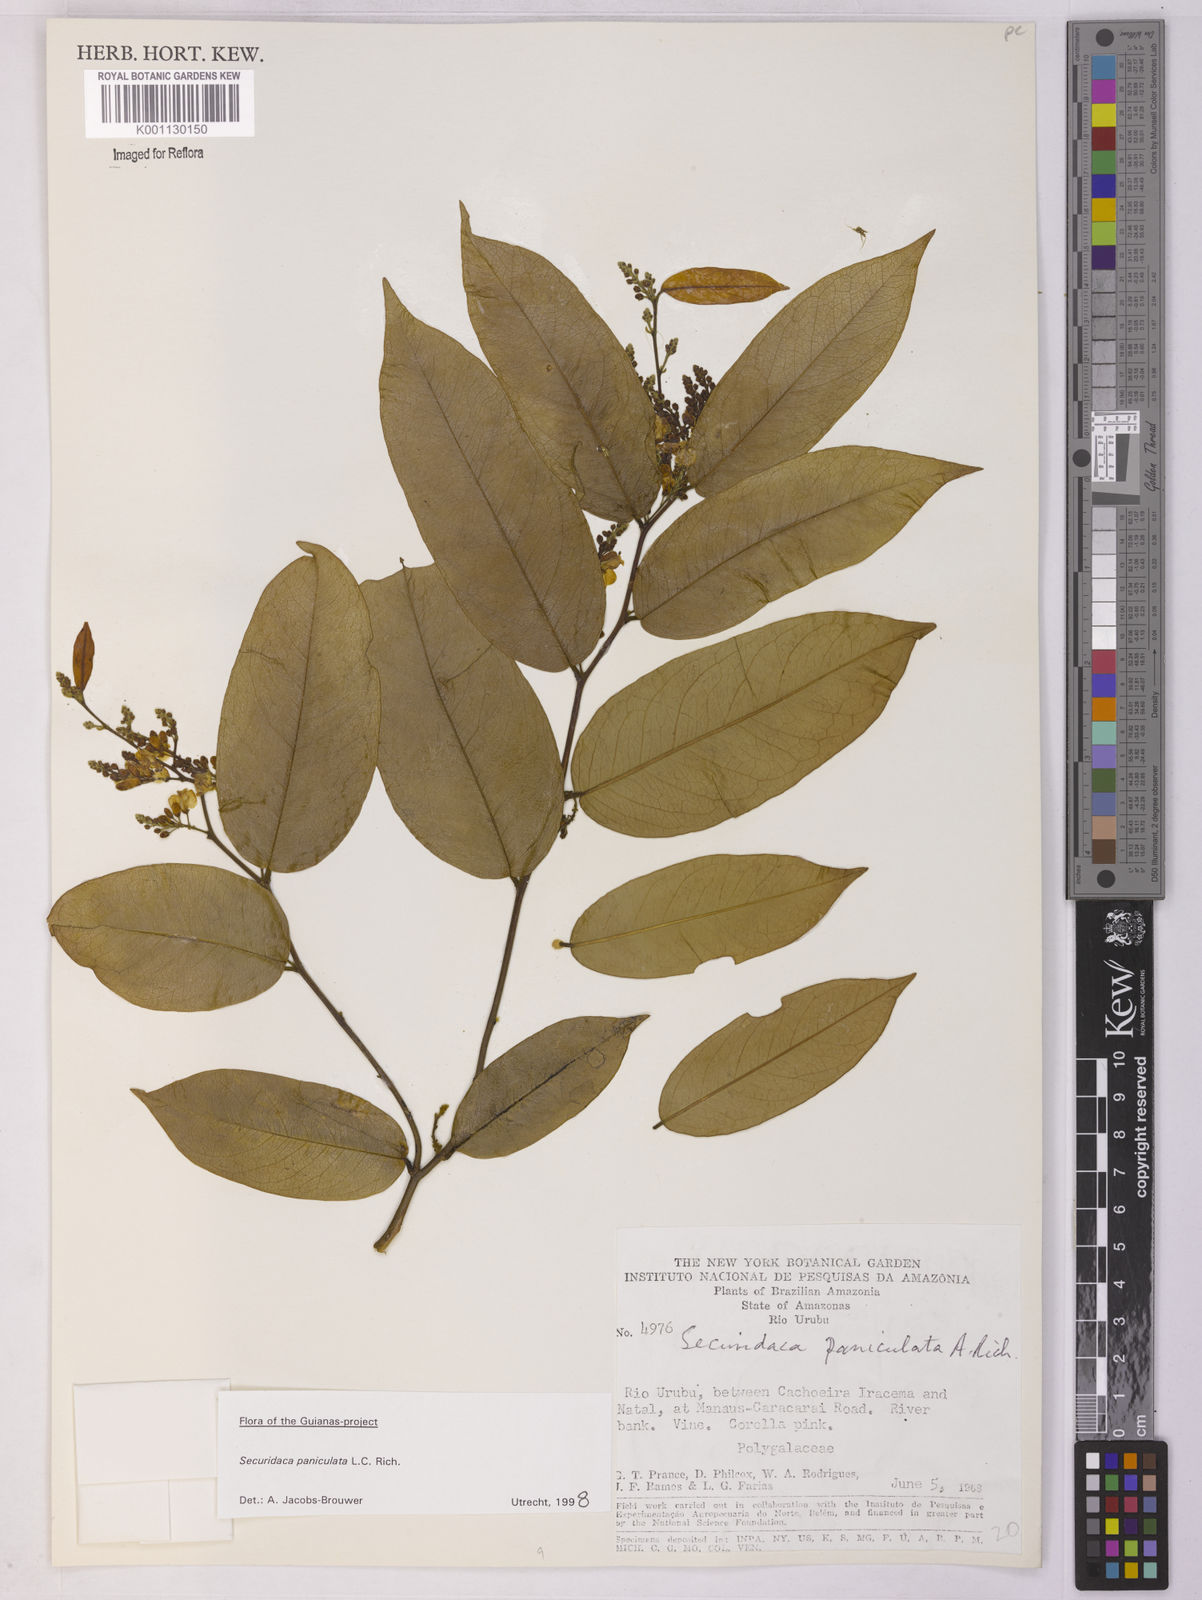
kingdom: Plantae
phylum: Tracheophyta
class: Magnoliopsida
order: Fabales
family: Polygalaceae
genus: Securidaca
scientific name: Securidaca paniculata
